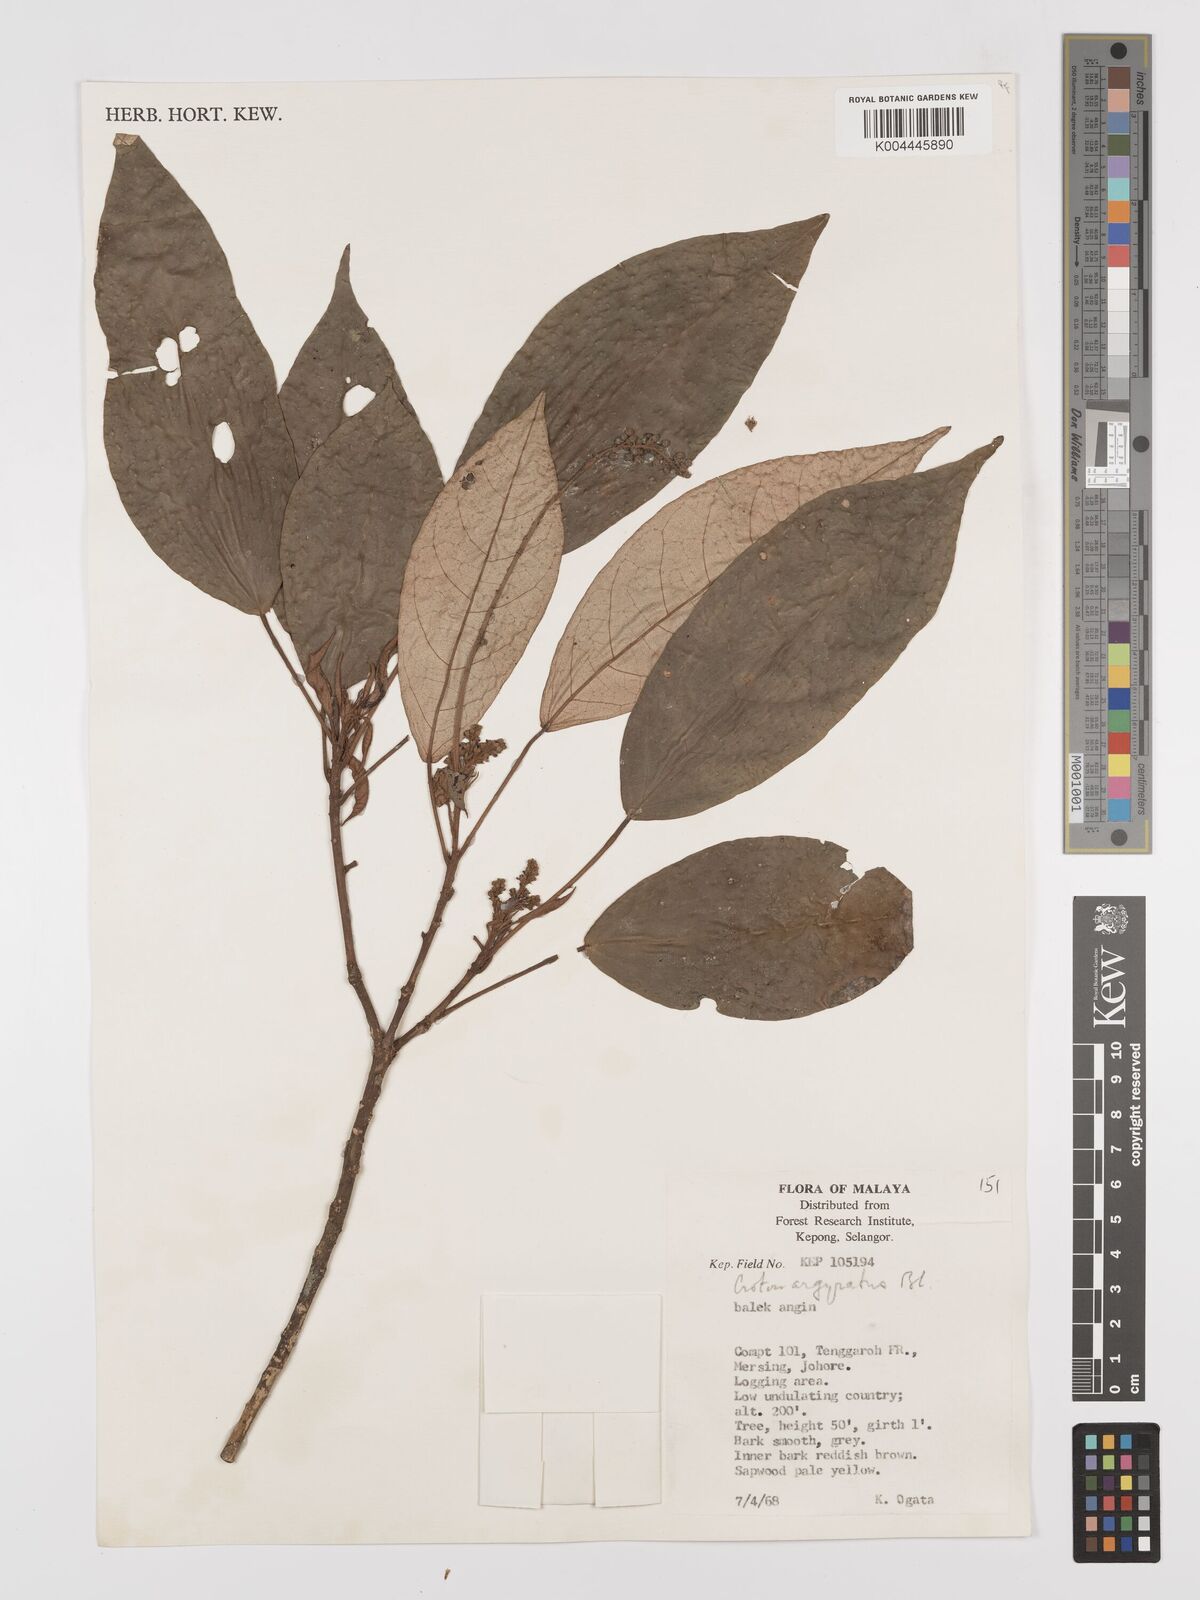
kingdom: Plantae
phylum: Tracheophyta
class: Magnoliopsida
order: Malpighiales
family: Euphorbiaceae
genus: Croton
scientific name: Croton argyratus
